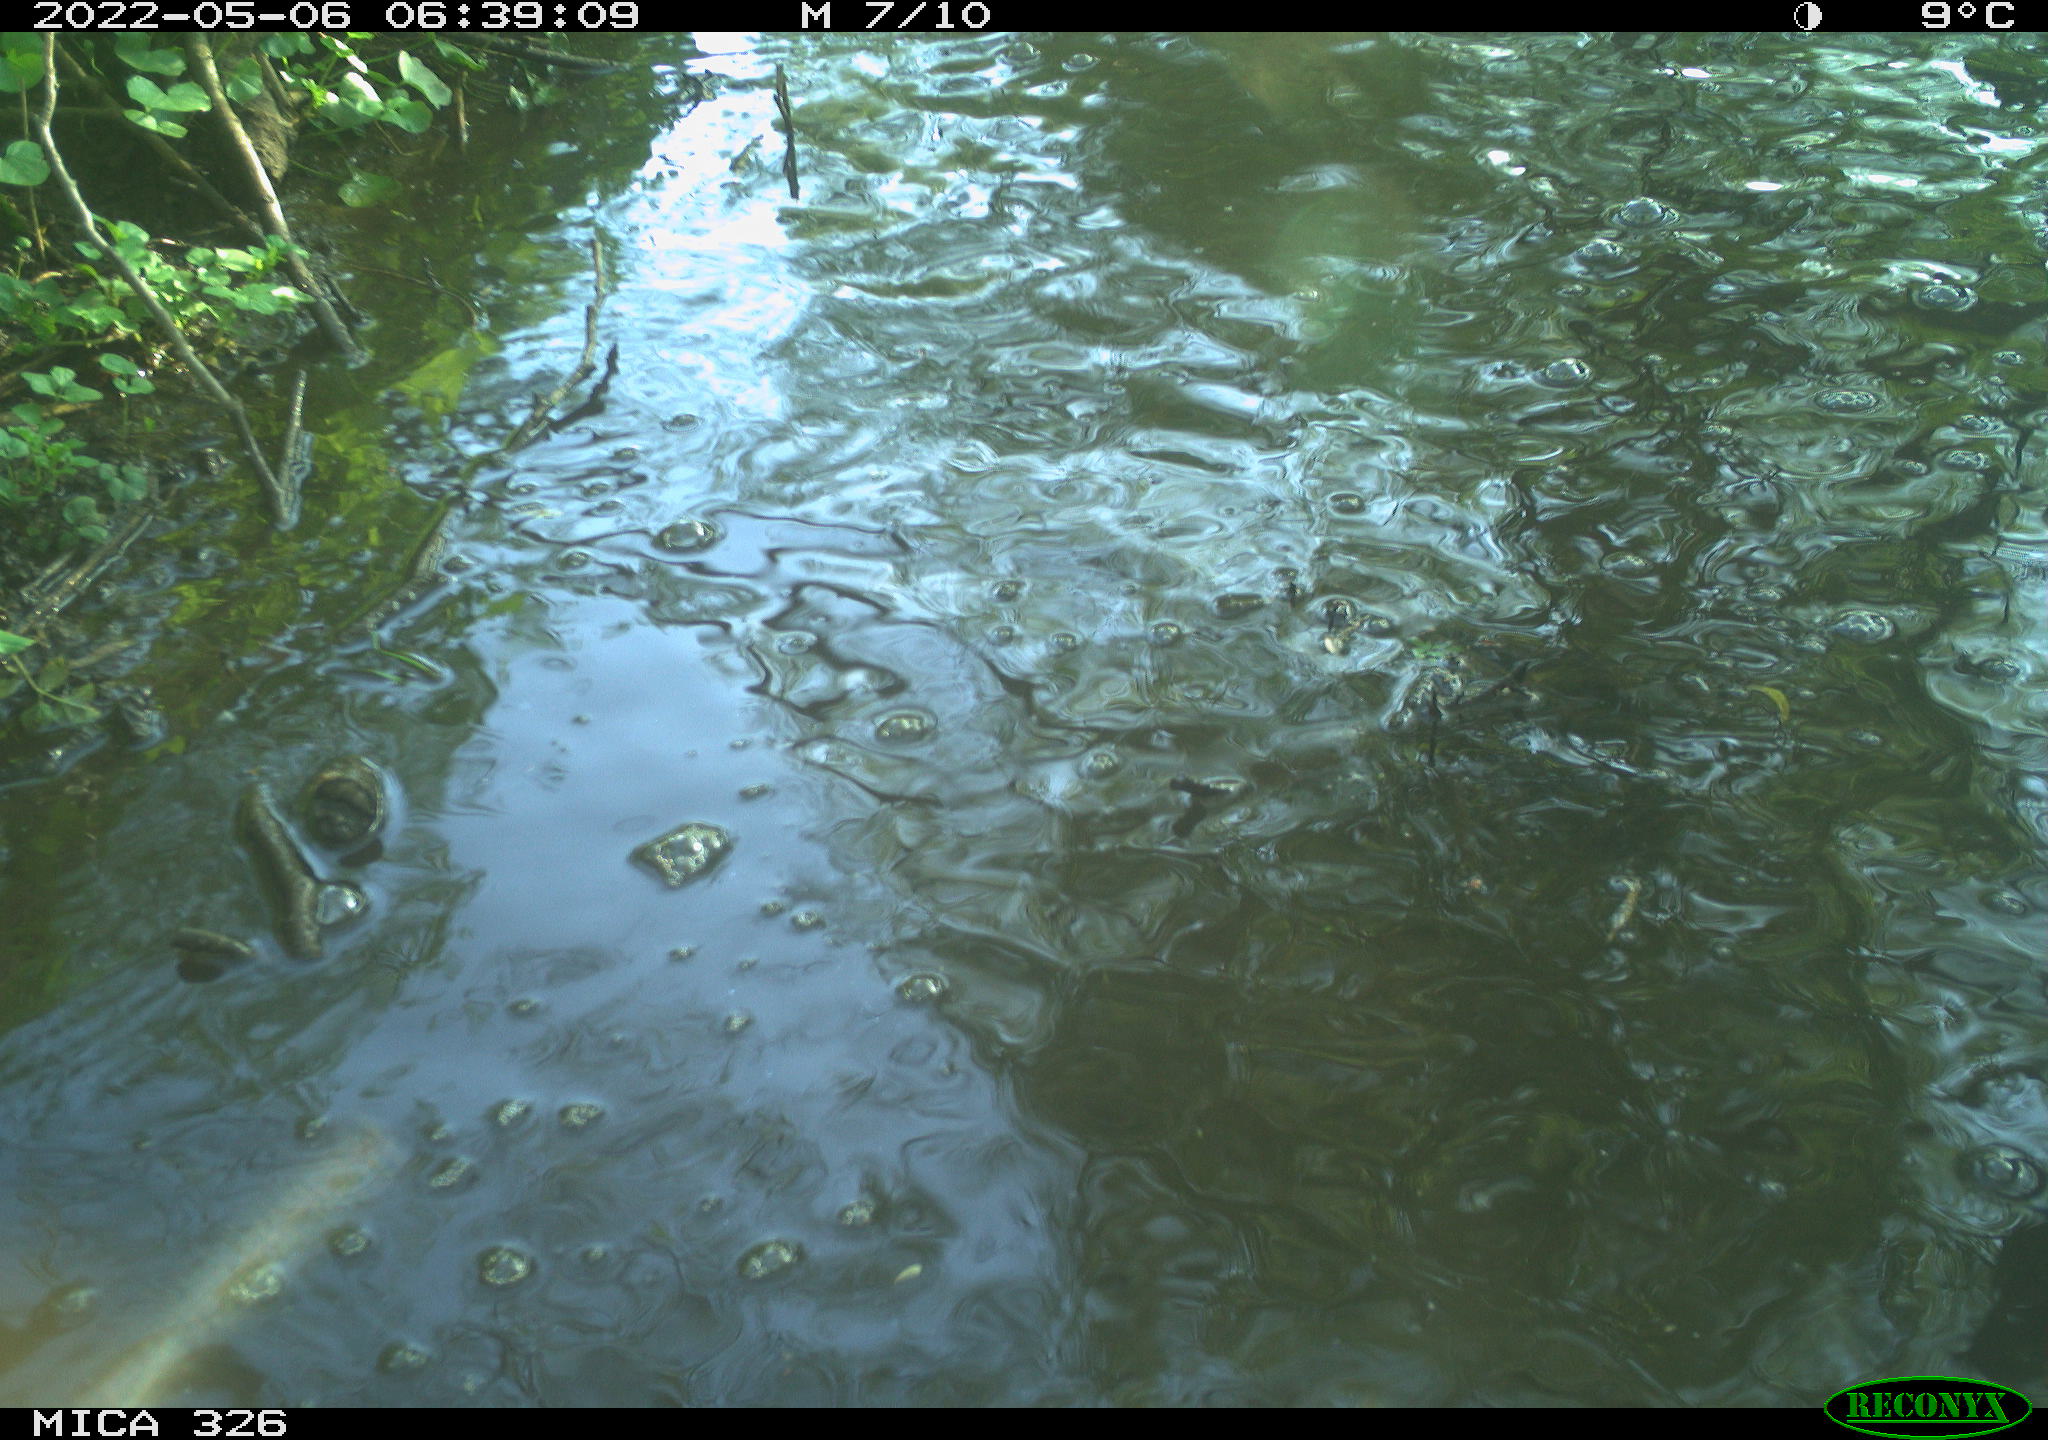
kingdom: Animalia
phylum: Chordata
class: Aves
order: Anseriformes
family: Anatidae
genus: Anas
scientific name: Anas
